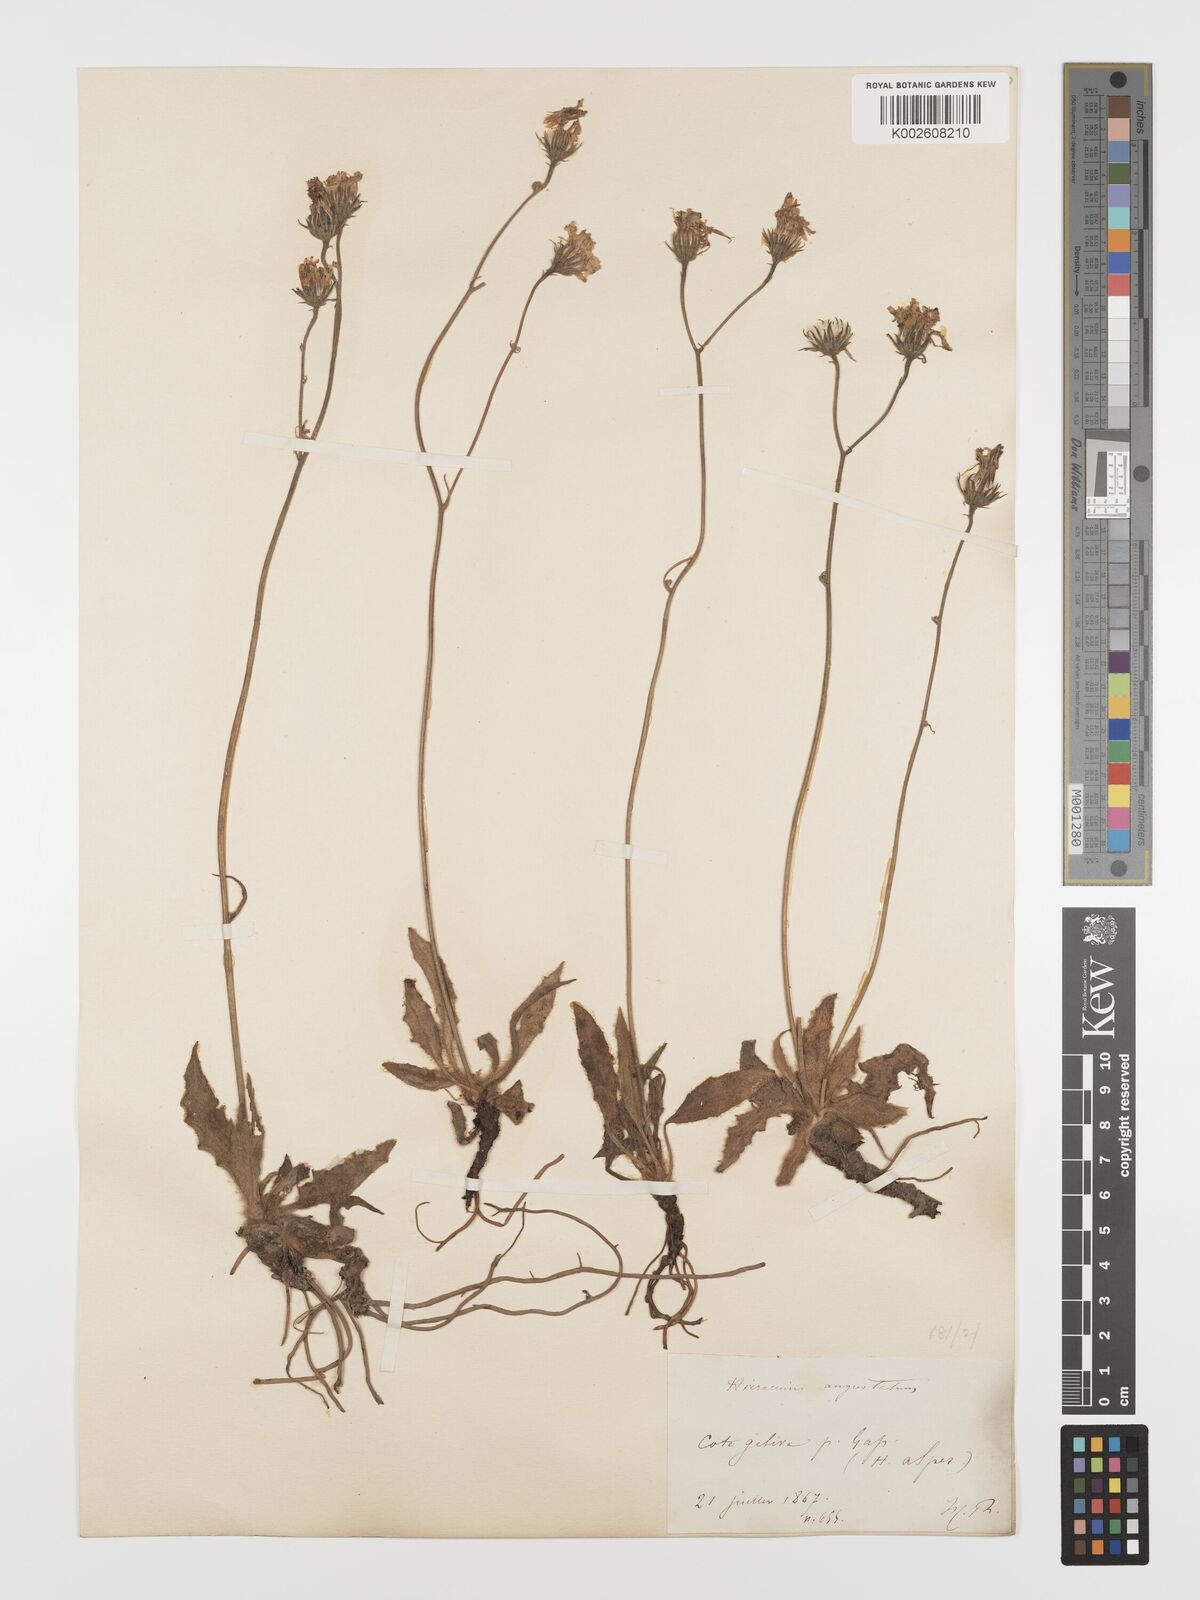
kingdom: Plantae
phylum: Tracheophyta
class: Magnoliopsida
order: Asterales
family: Asteraceae
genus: Hieracium
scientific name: Hieracium
